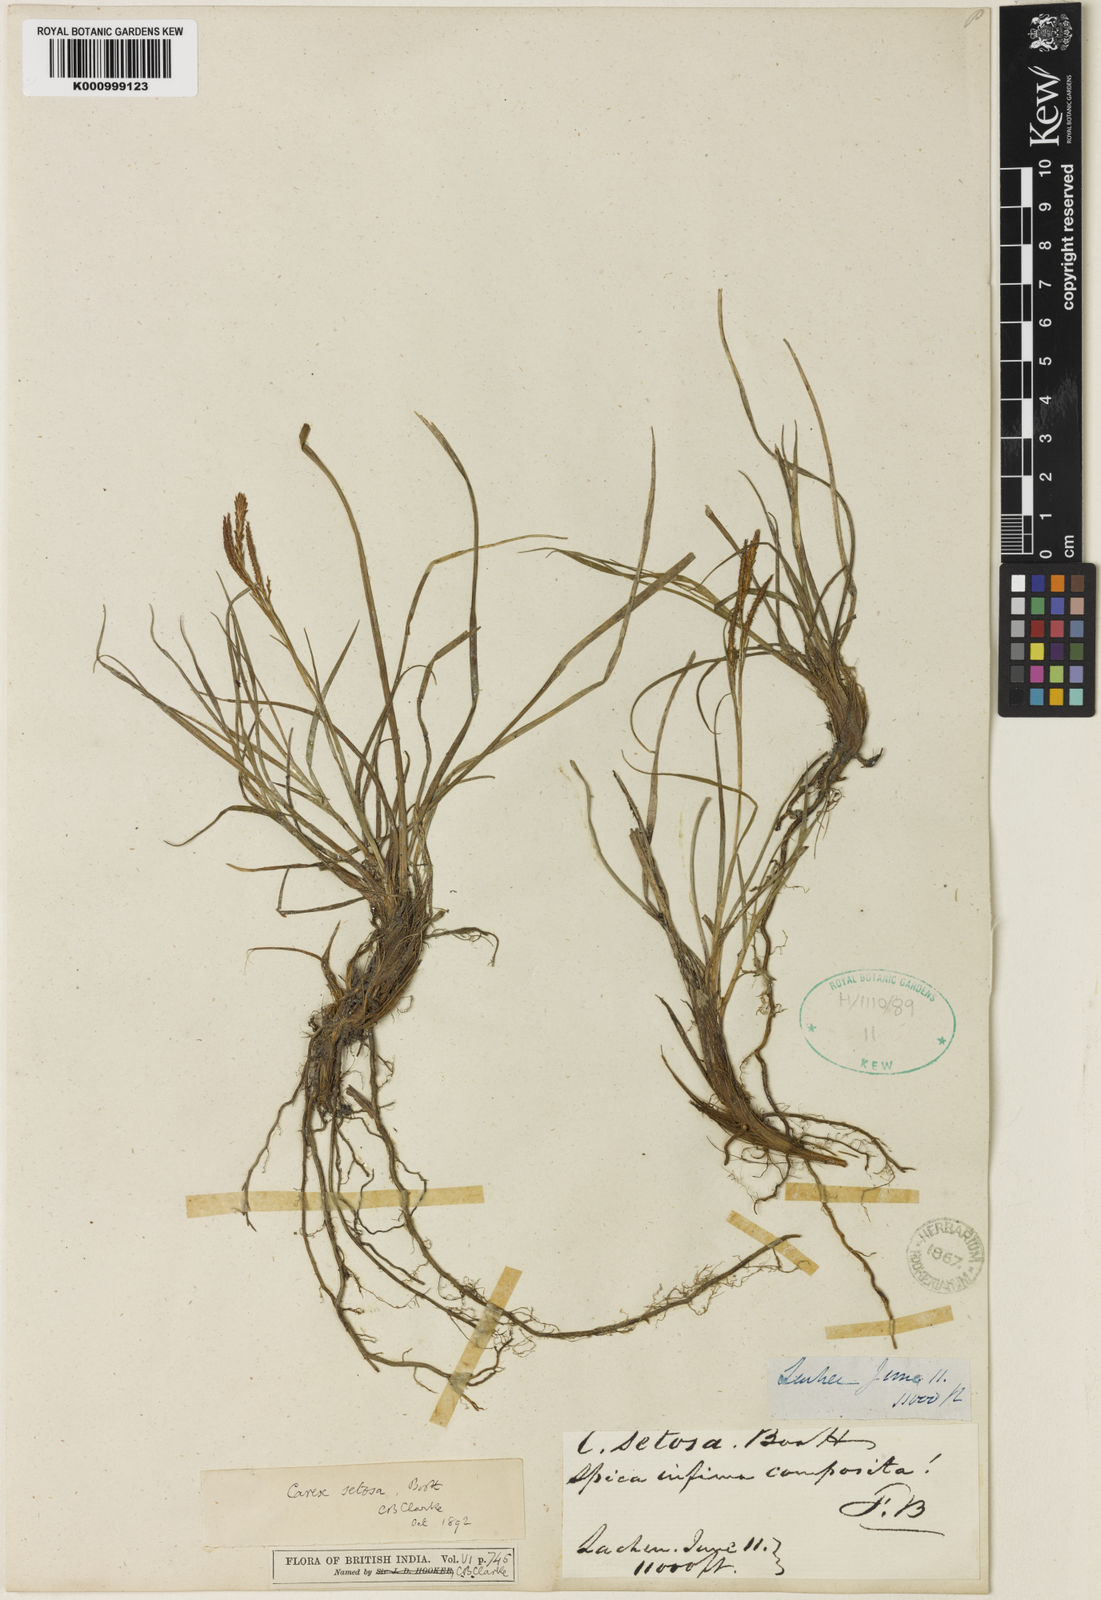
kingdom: Plantae
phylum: Tracheophyta
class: Liliopsida
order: Poales
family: Cyperaceae
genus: Carex
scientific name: Carex setosa
